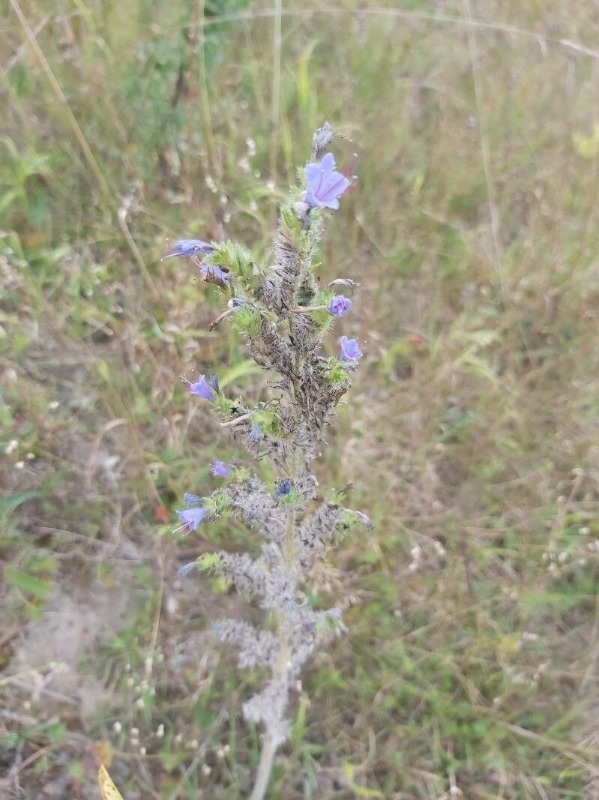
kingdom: Plantae
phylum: Tracheophyta
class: Magnoliopsida
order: Boraginales
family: Boraginaceae
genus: Echium
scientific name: Echium vulgare
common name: Slangehoved
